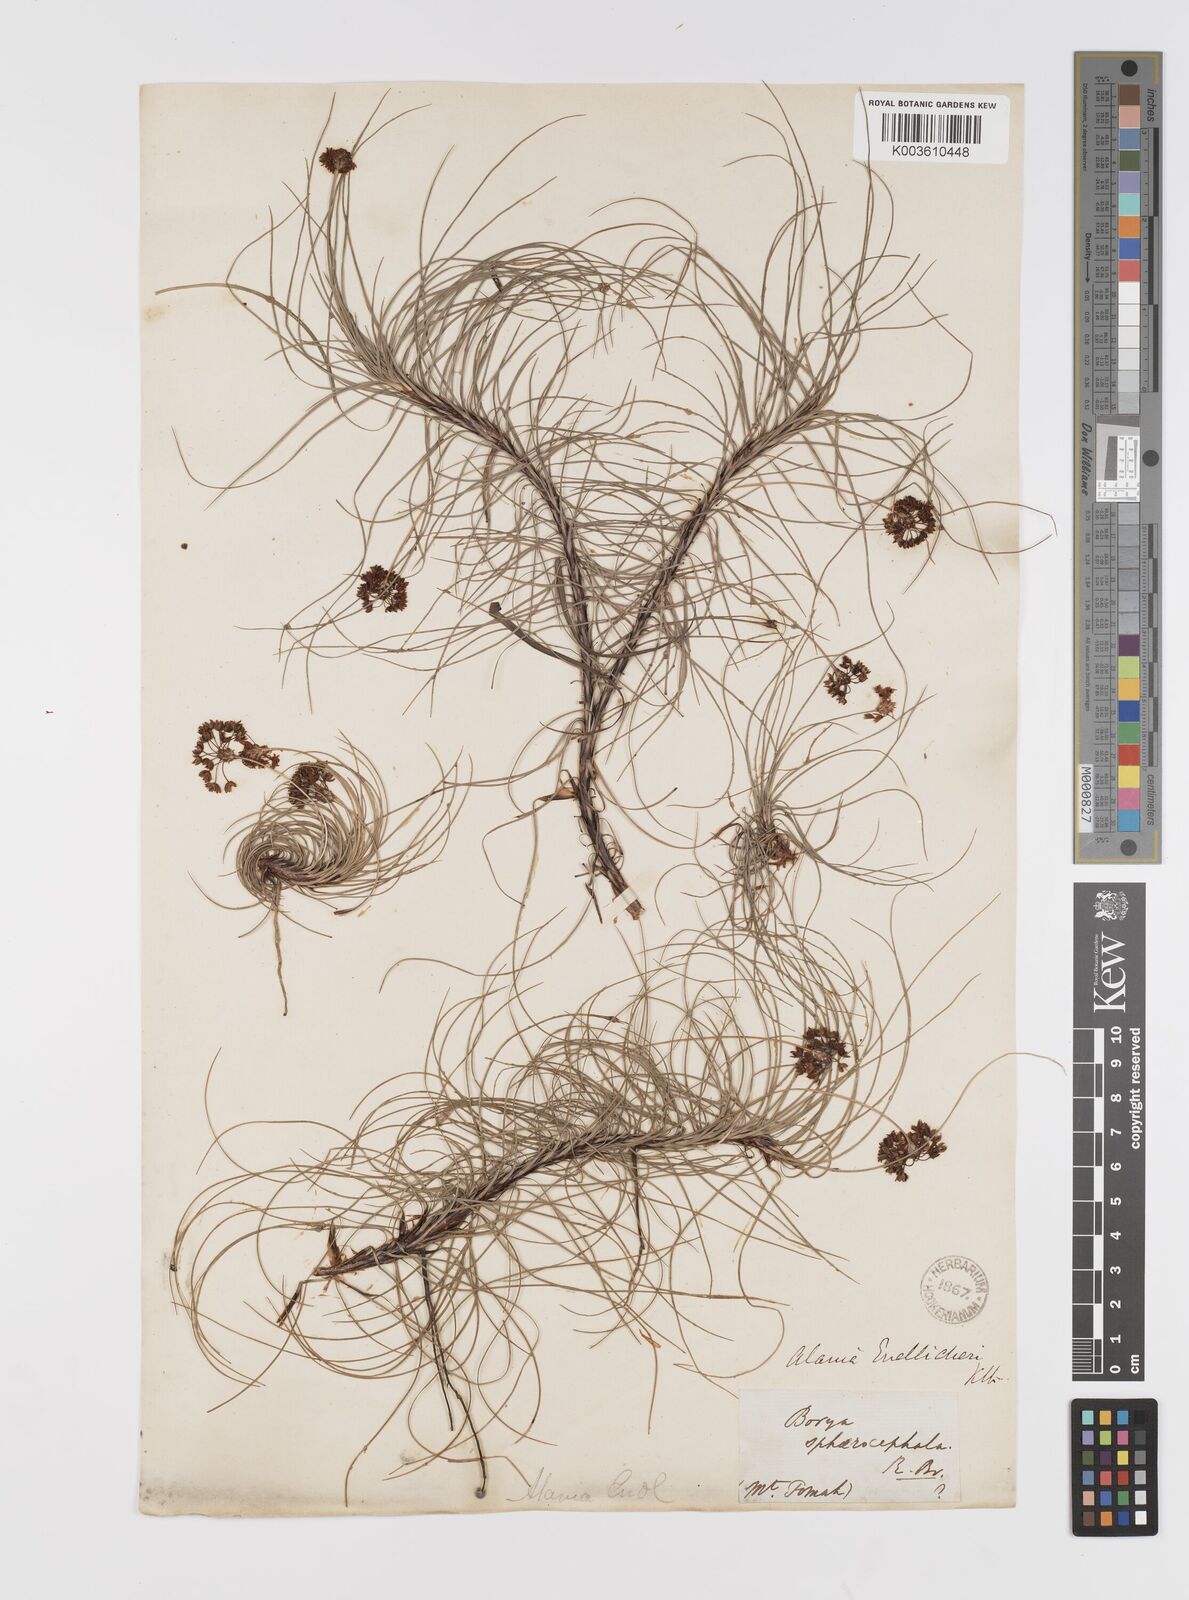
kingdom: Plantae
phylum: Tracheophyta
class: Liliopsida
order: Asparagales
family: Boryaceae
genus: Alania
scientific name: Alania cunninghamii
